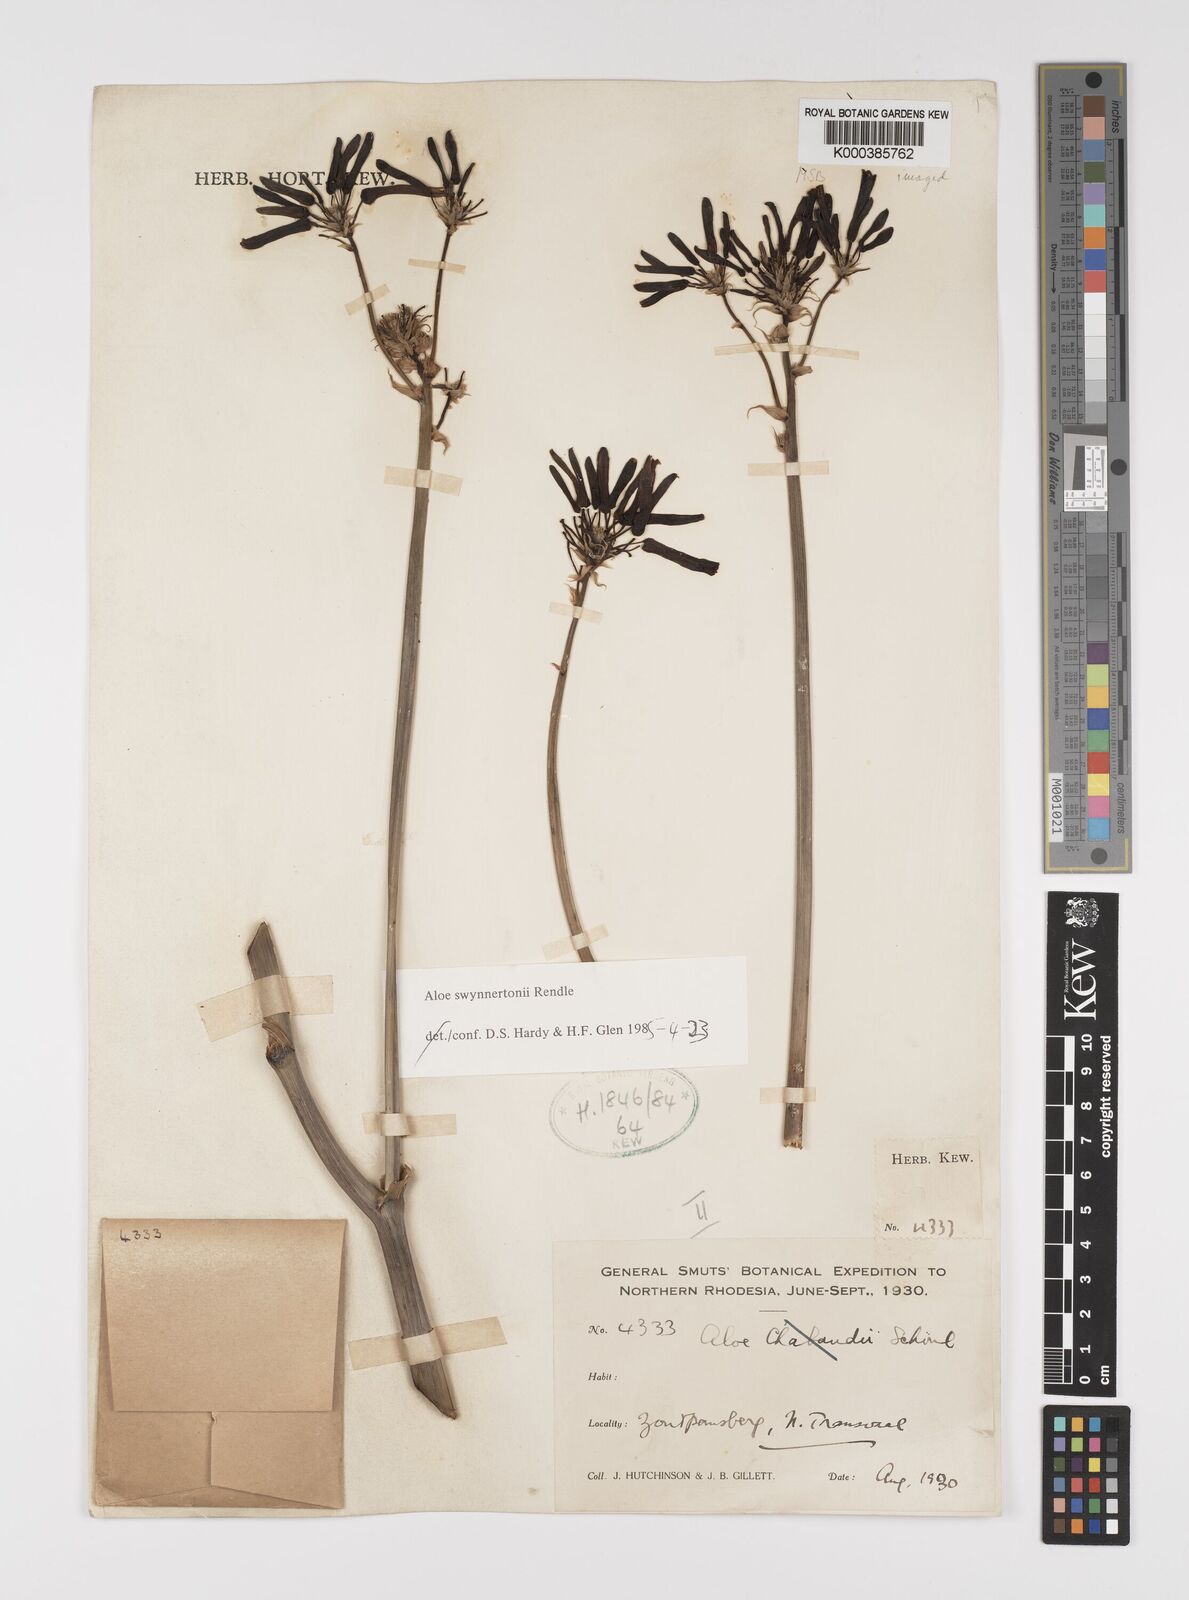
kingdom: Plantae
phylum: Tracheophyta
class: Liliopsida
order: Asparagales
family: Asphodelaceae
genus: Aloe
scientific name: Aloe swynnertonii
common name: Swynnerton's aloe
